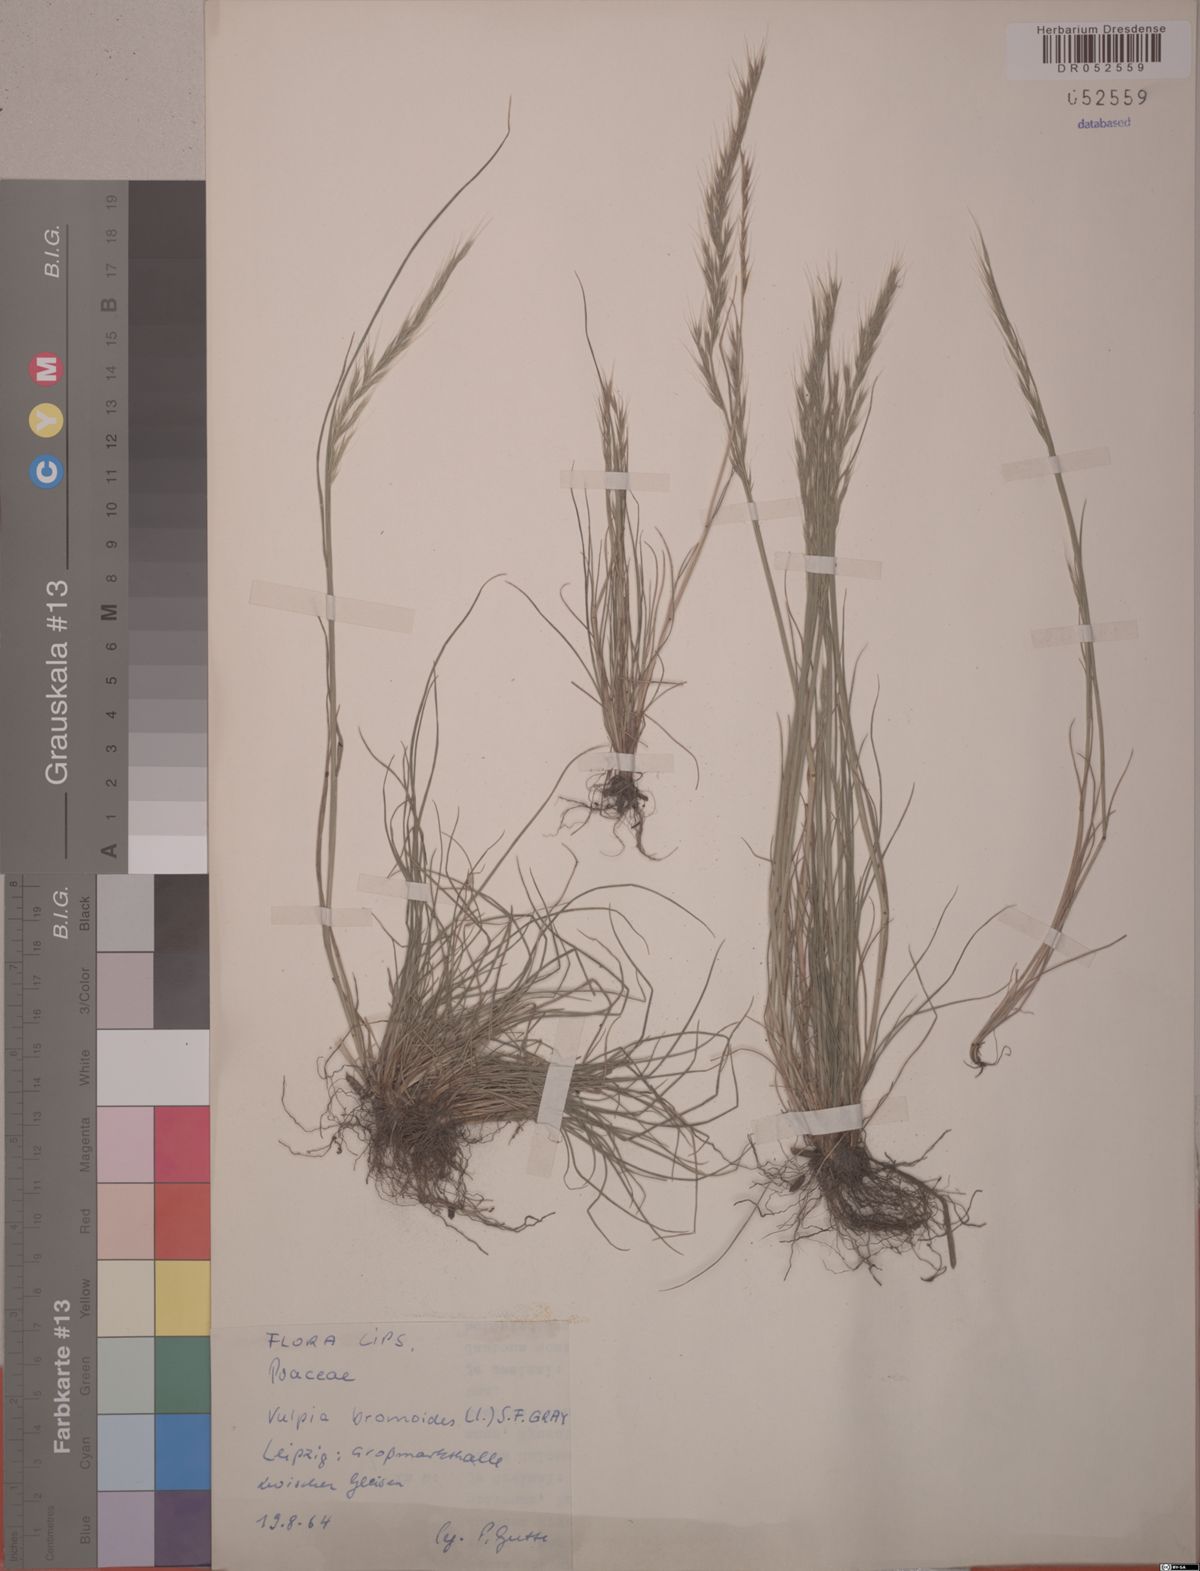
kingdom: Plantae
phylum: Tracheophyta
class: Liliopsida
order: Poales
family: Poaceae
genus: Festuca
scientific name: Festuca bromoides
